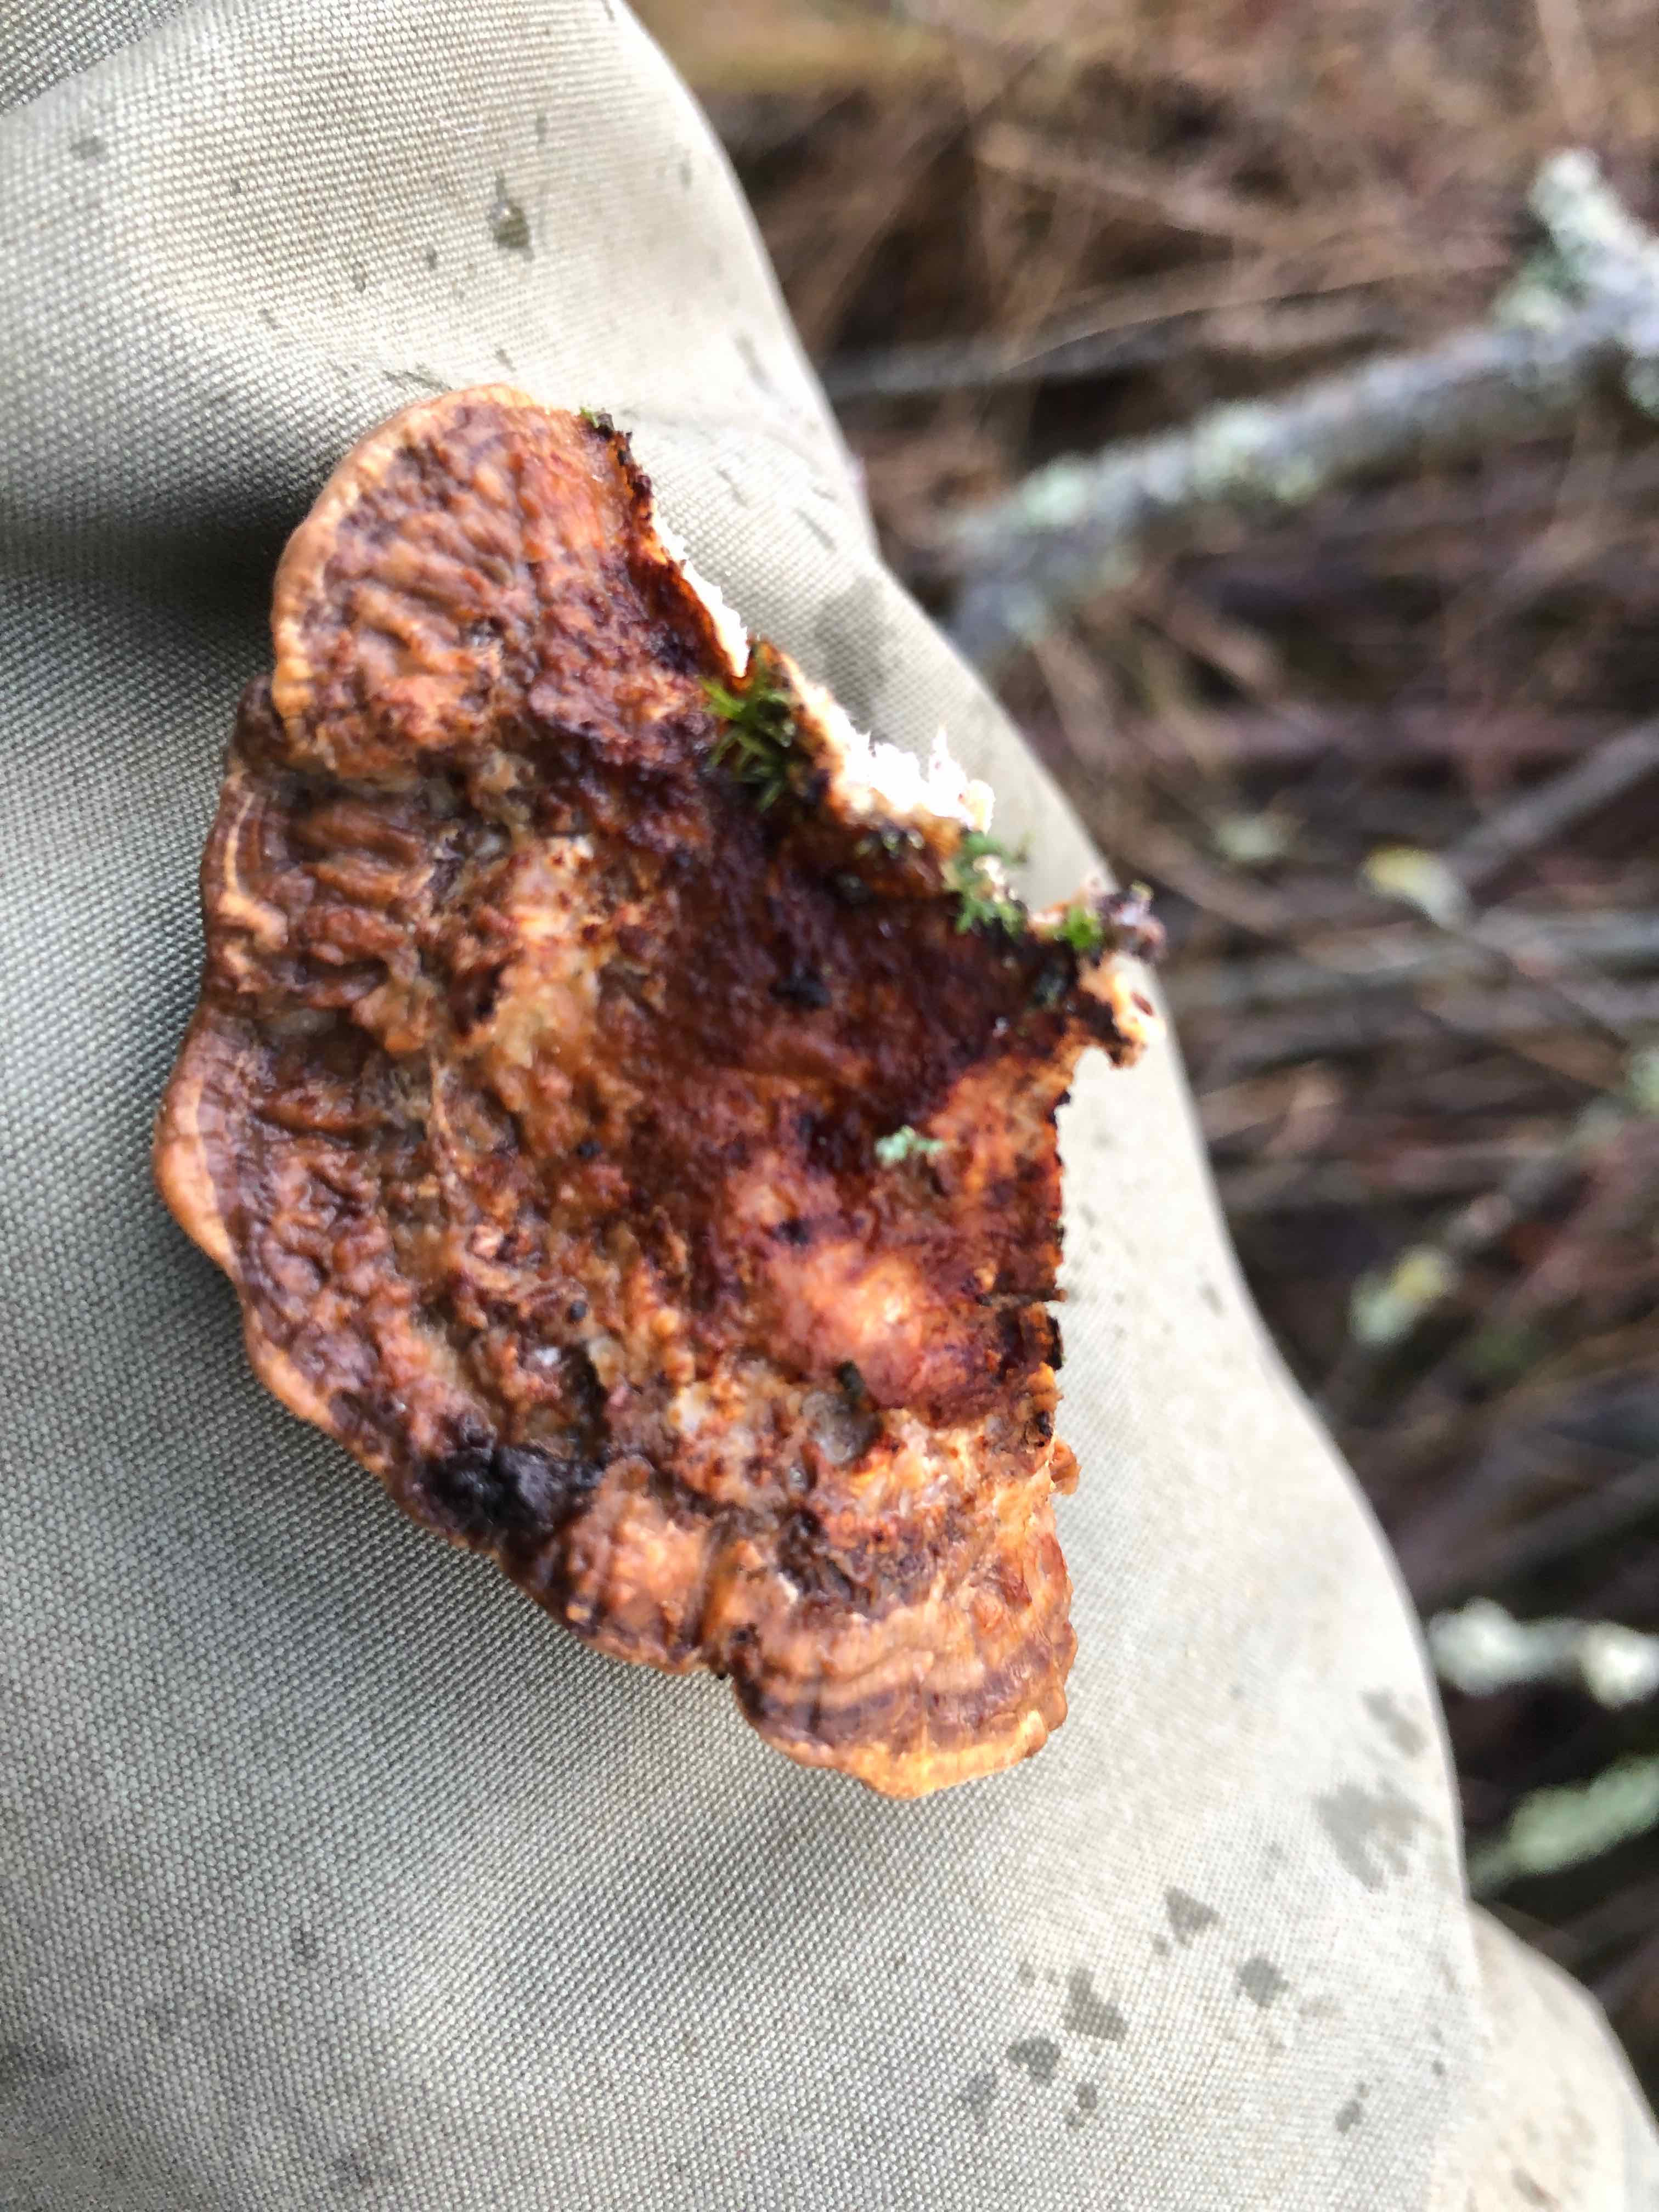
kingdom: Fungi
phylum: Basidiomycota
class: Agaricomycetes
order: Polyporales
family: Polyporaceae
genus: Daedaleopsis
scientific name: Daedaleopsis confragosa
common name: rødmende læderporesvamp
